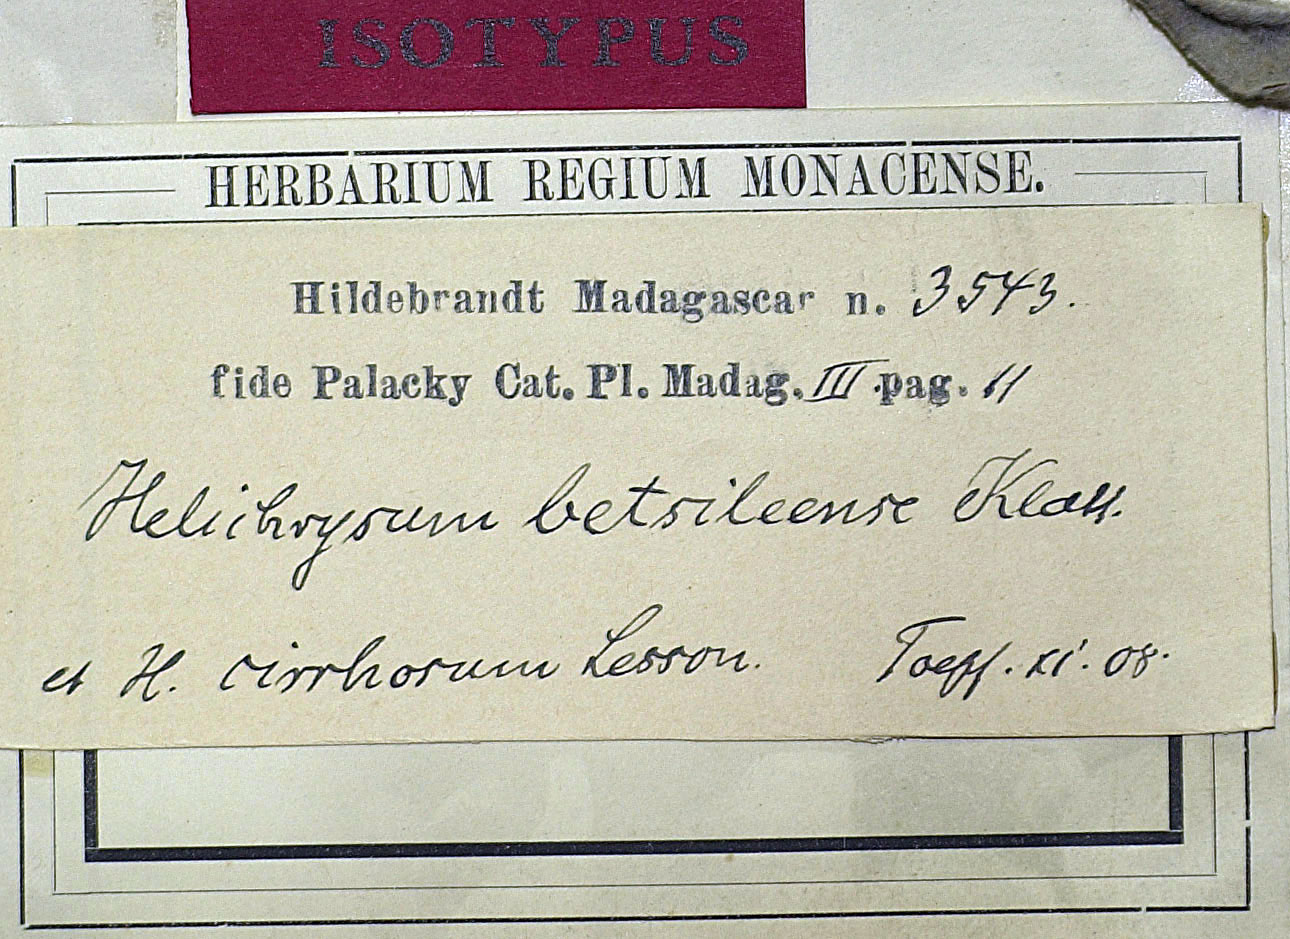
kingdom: Plantae
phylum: Tracheophyta
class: Magnoliopsida
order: Asterales
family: Asteraceae
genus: Helichrysum
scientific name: Helichrysum betsiliense
